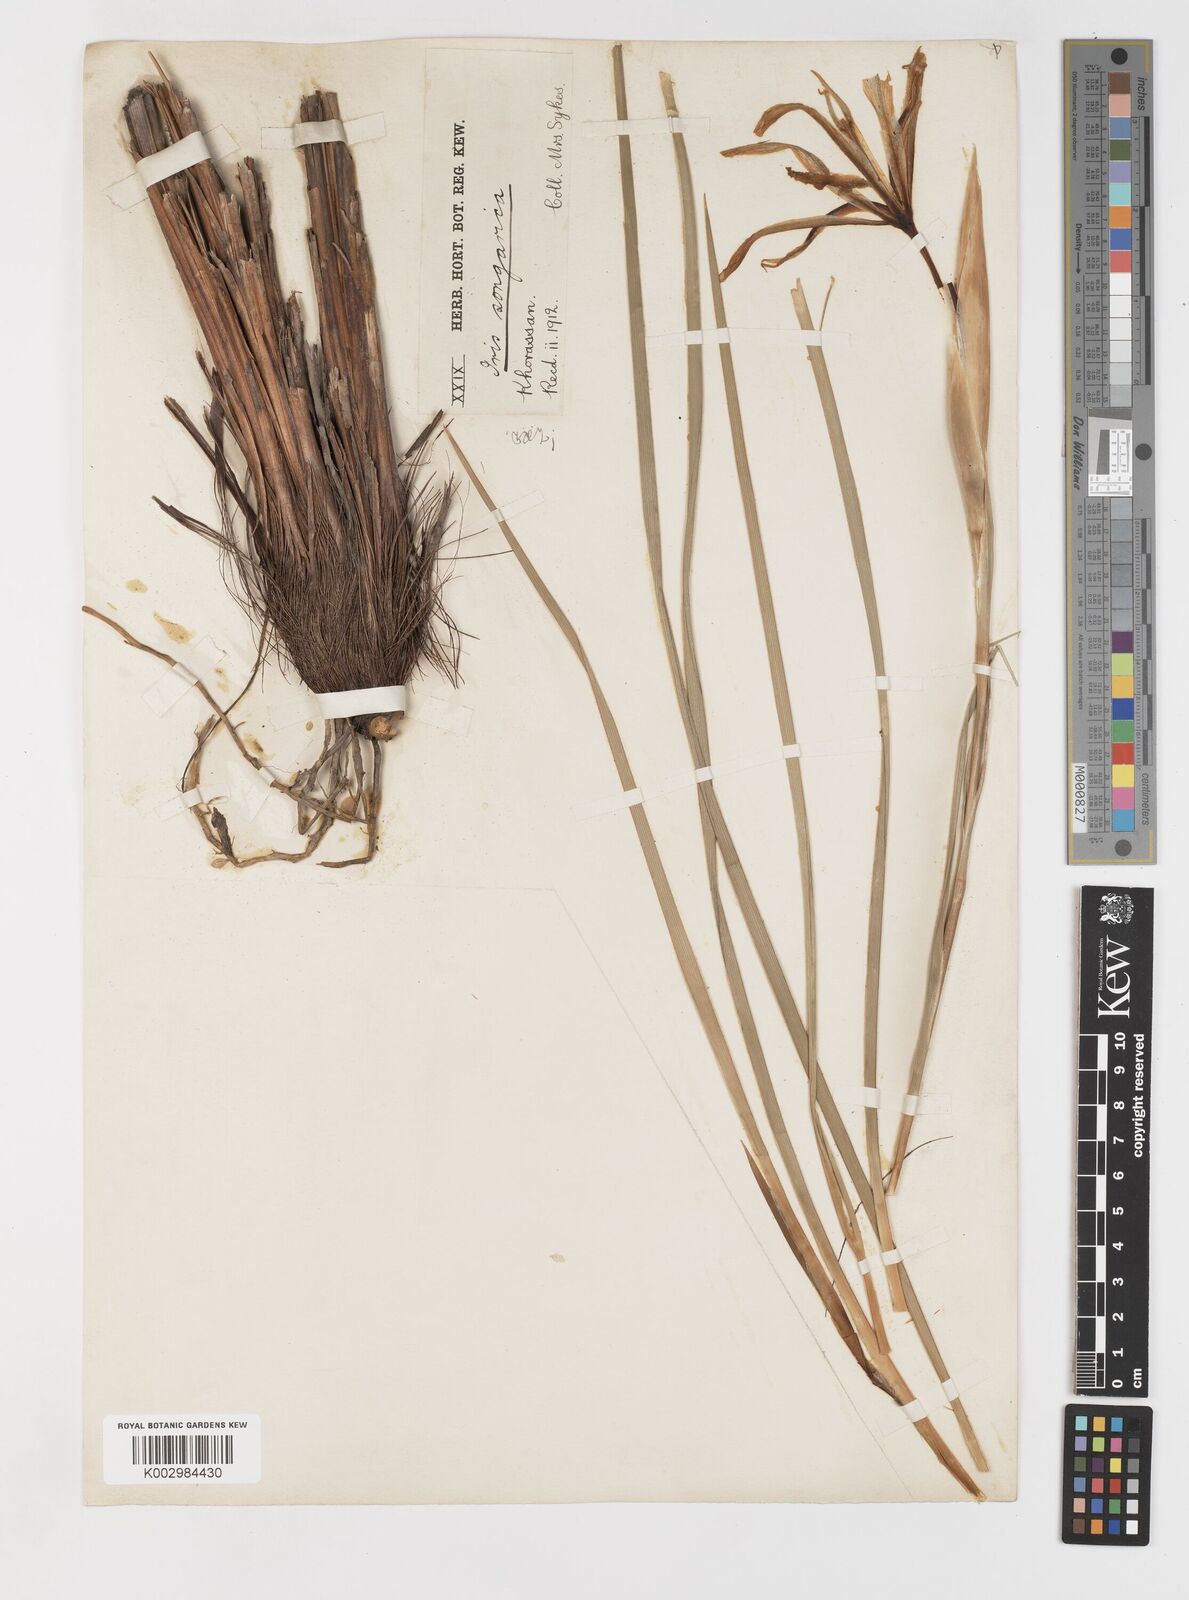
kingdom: Plantae
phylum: Tracheophyta
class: Liliopsida
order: Asparagales
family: Iridaceae
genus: Iris
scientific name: Iris songarica
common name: Songar iris
